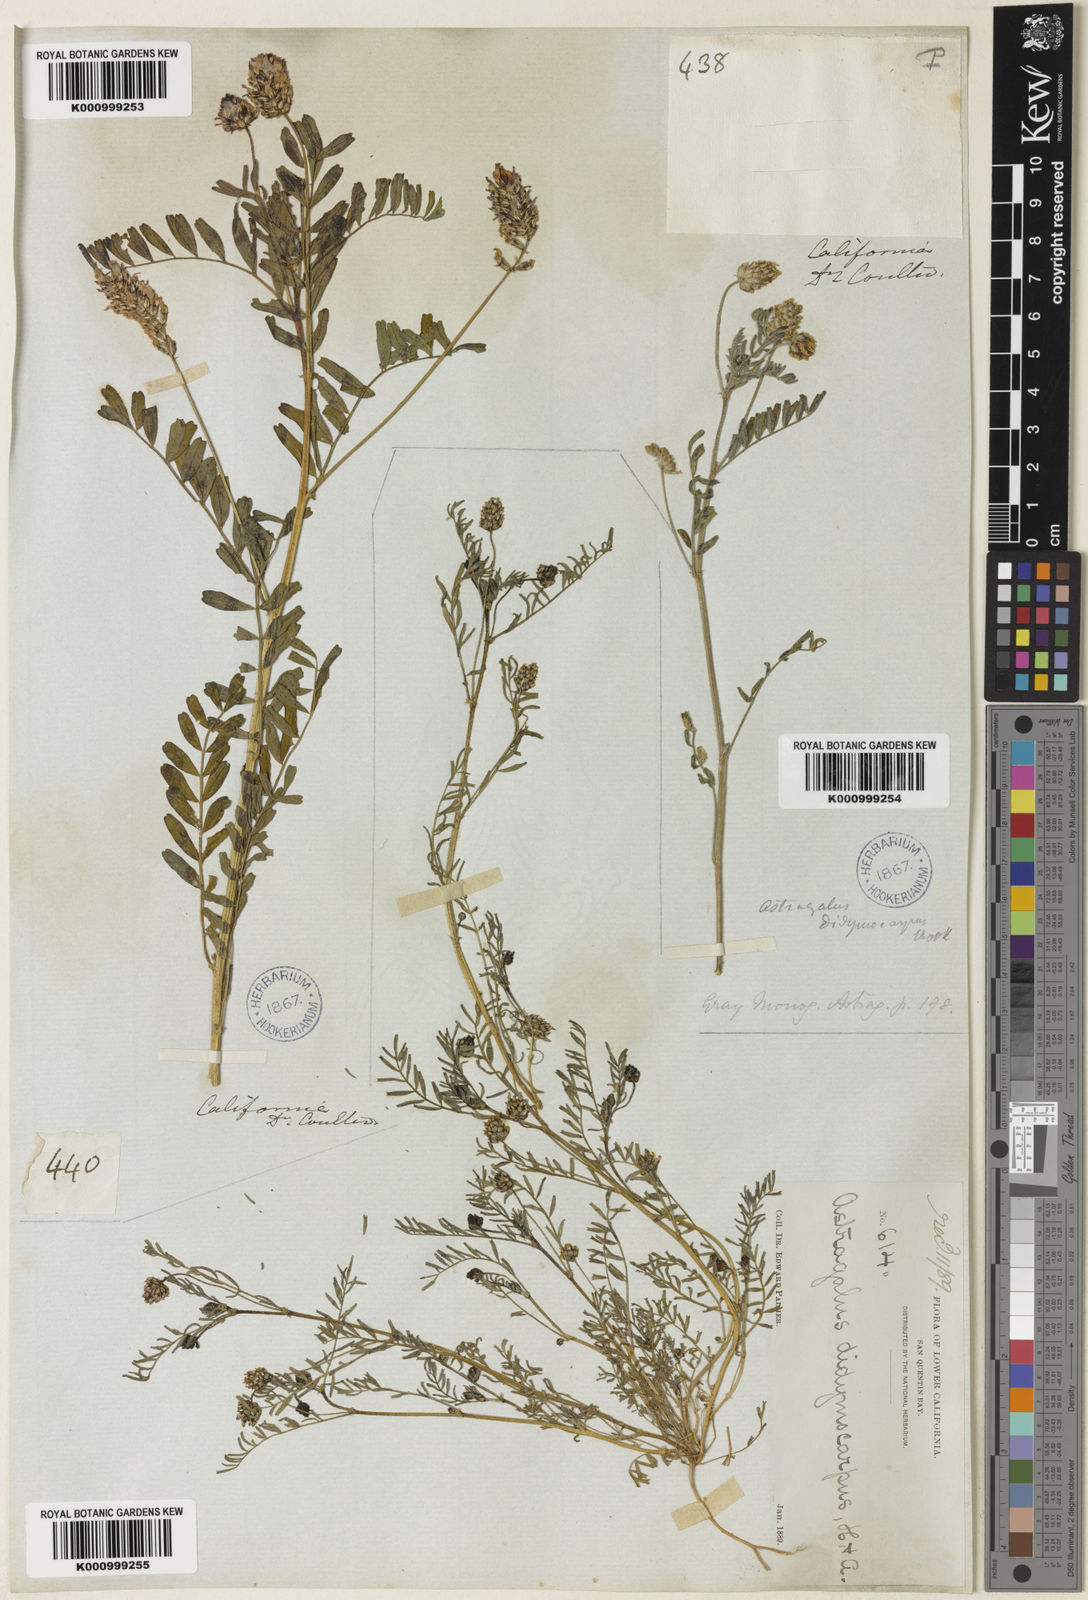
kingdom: Plantae
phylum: Tracheophyta
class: Magnoliopsida
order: Fabales
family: Fabaceae
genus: Astragalus
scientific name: Astragalus didymocarpus
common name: Dwarf white milkvetch
